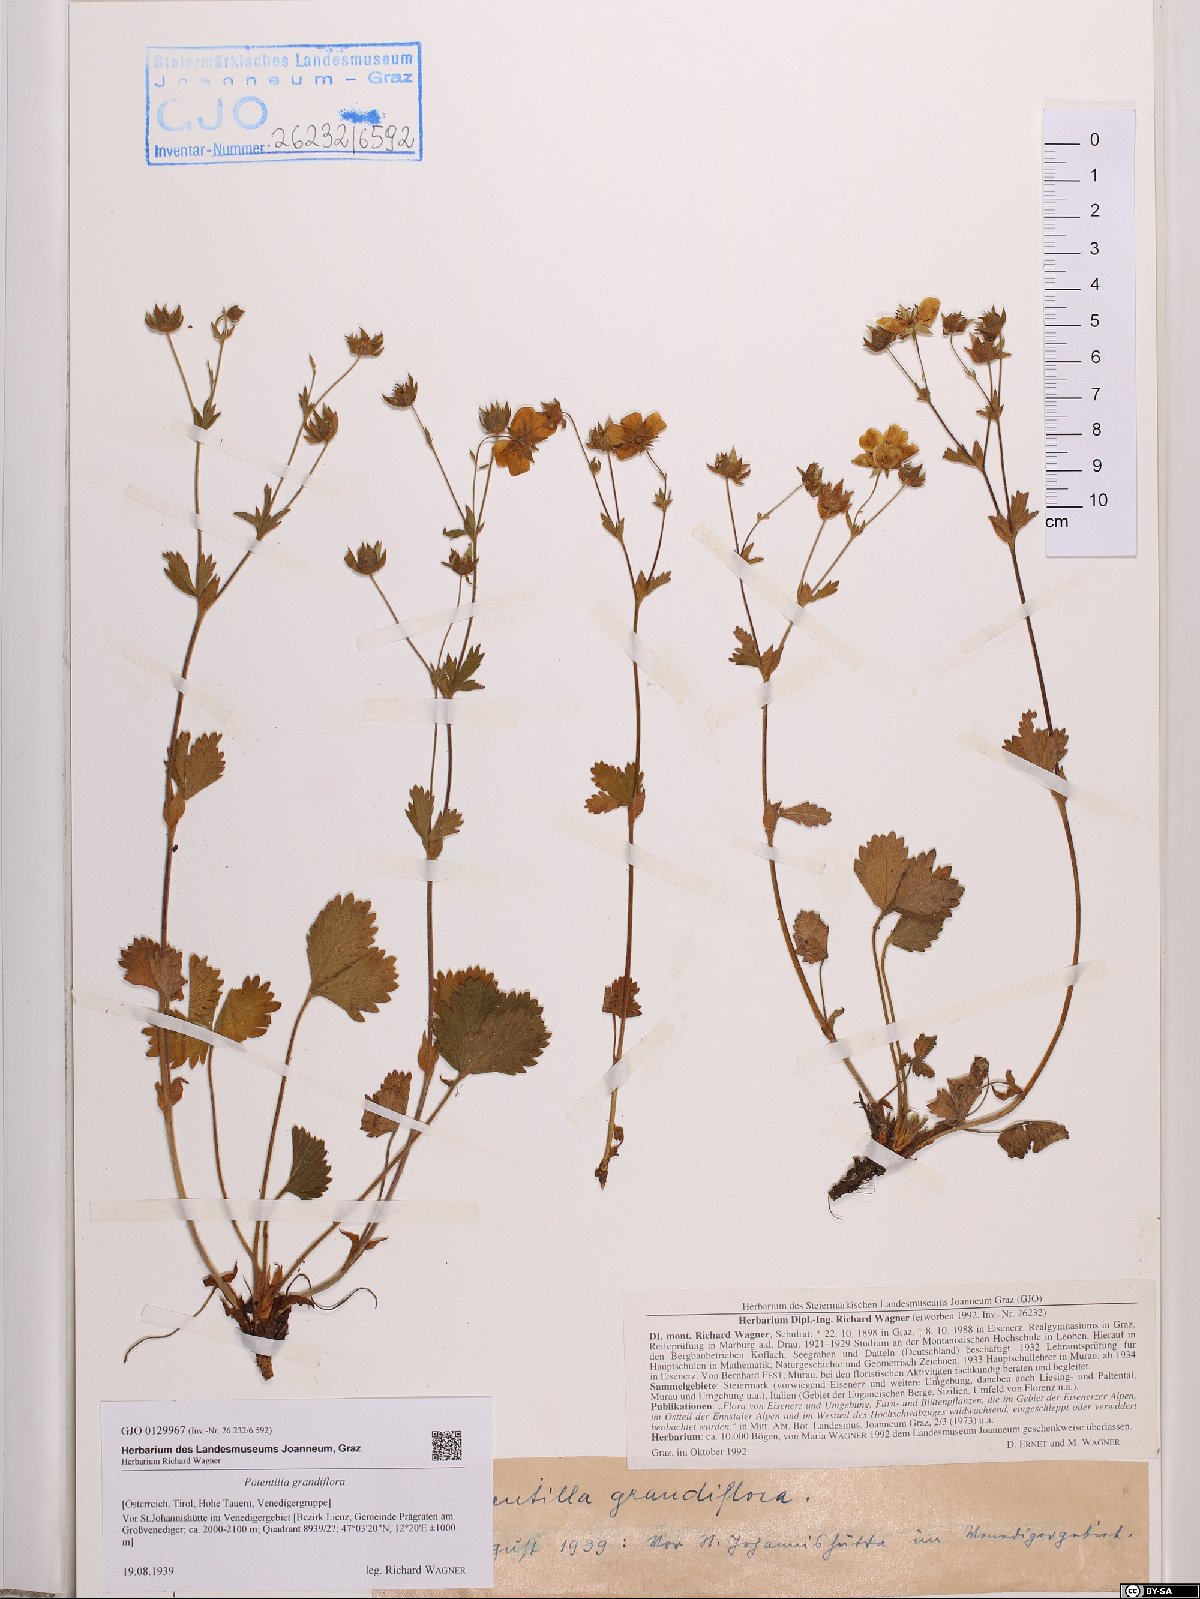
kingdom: Plantae
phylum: Tracheophyta
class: Magnoliopsida
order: Rosales
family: Rosaceae
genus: Potentilla
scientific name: Potentilla grandiflora
